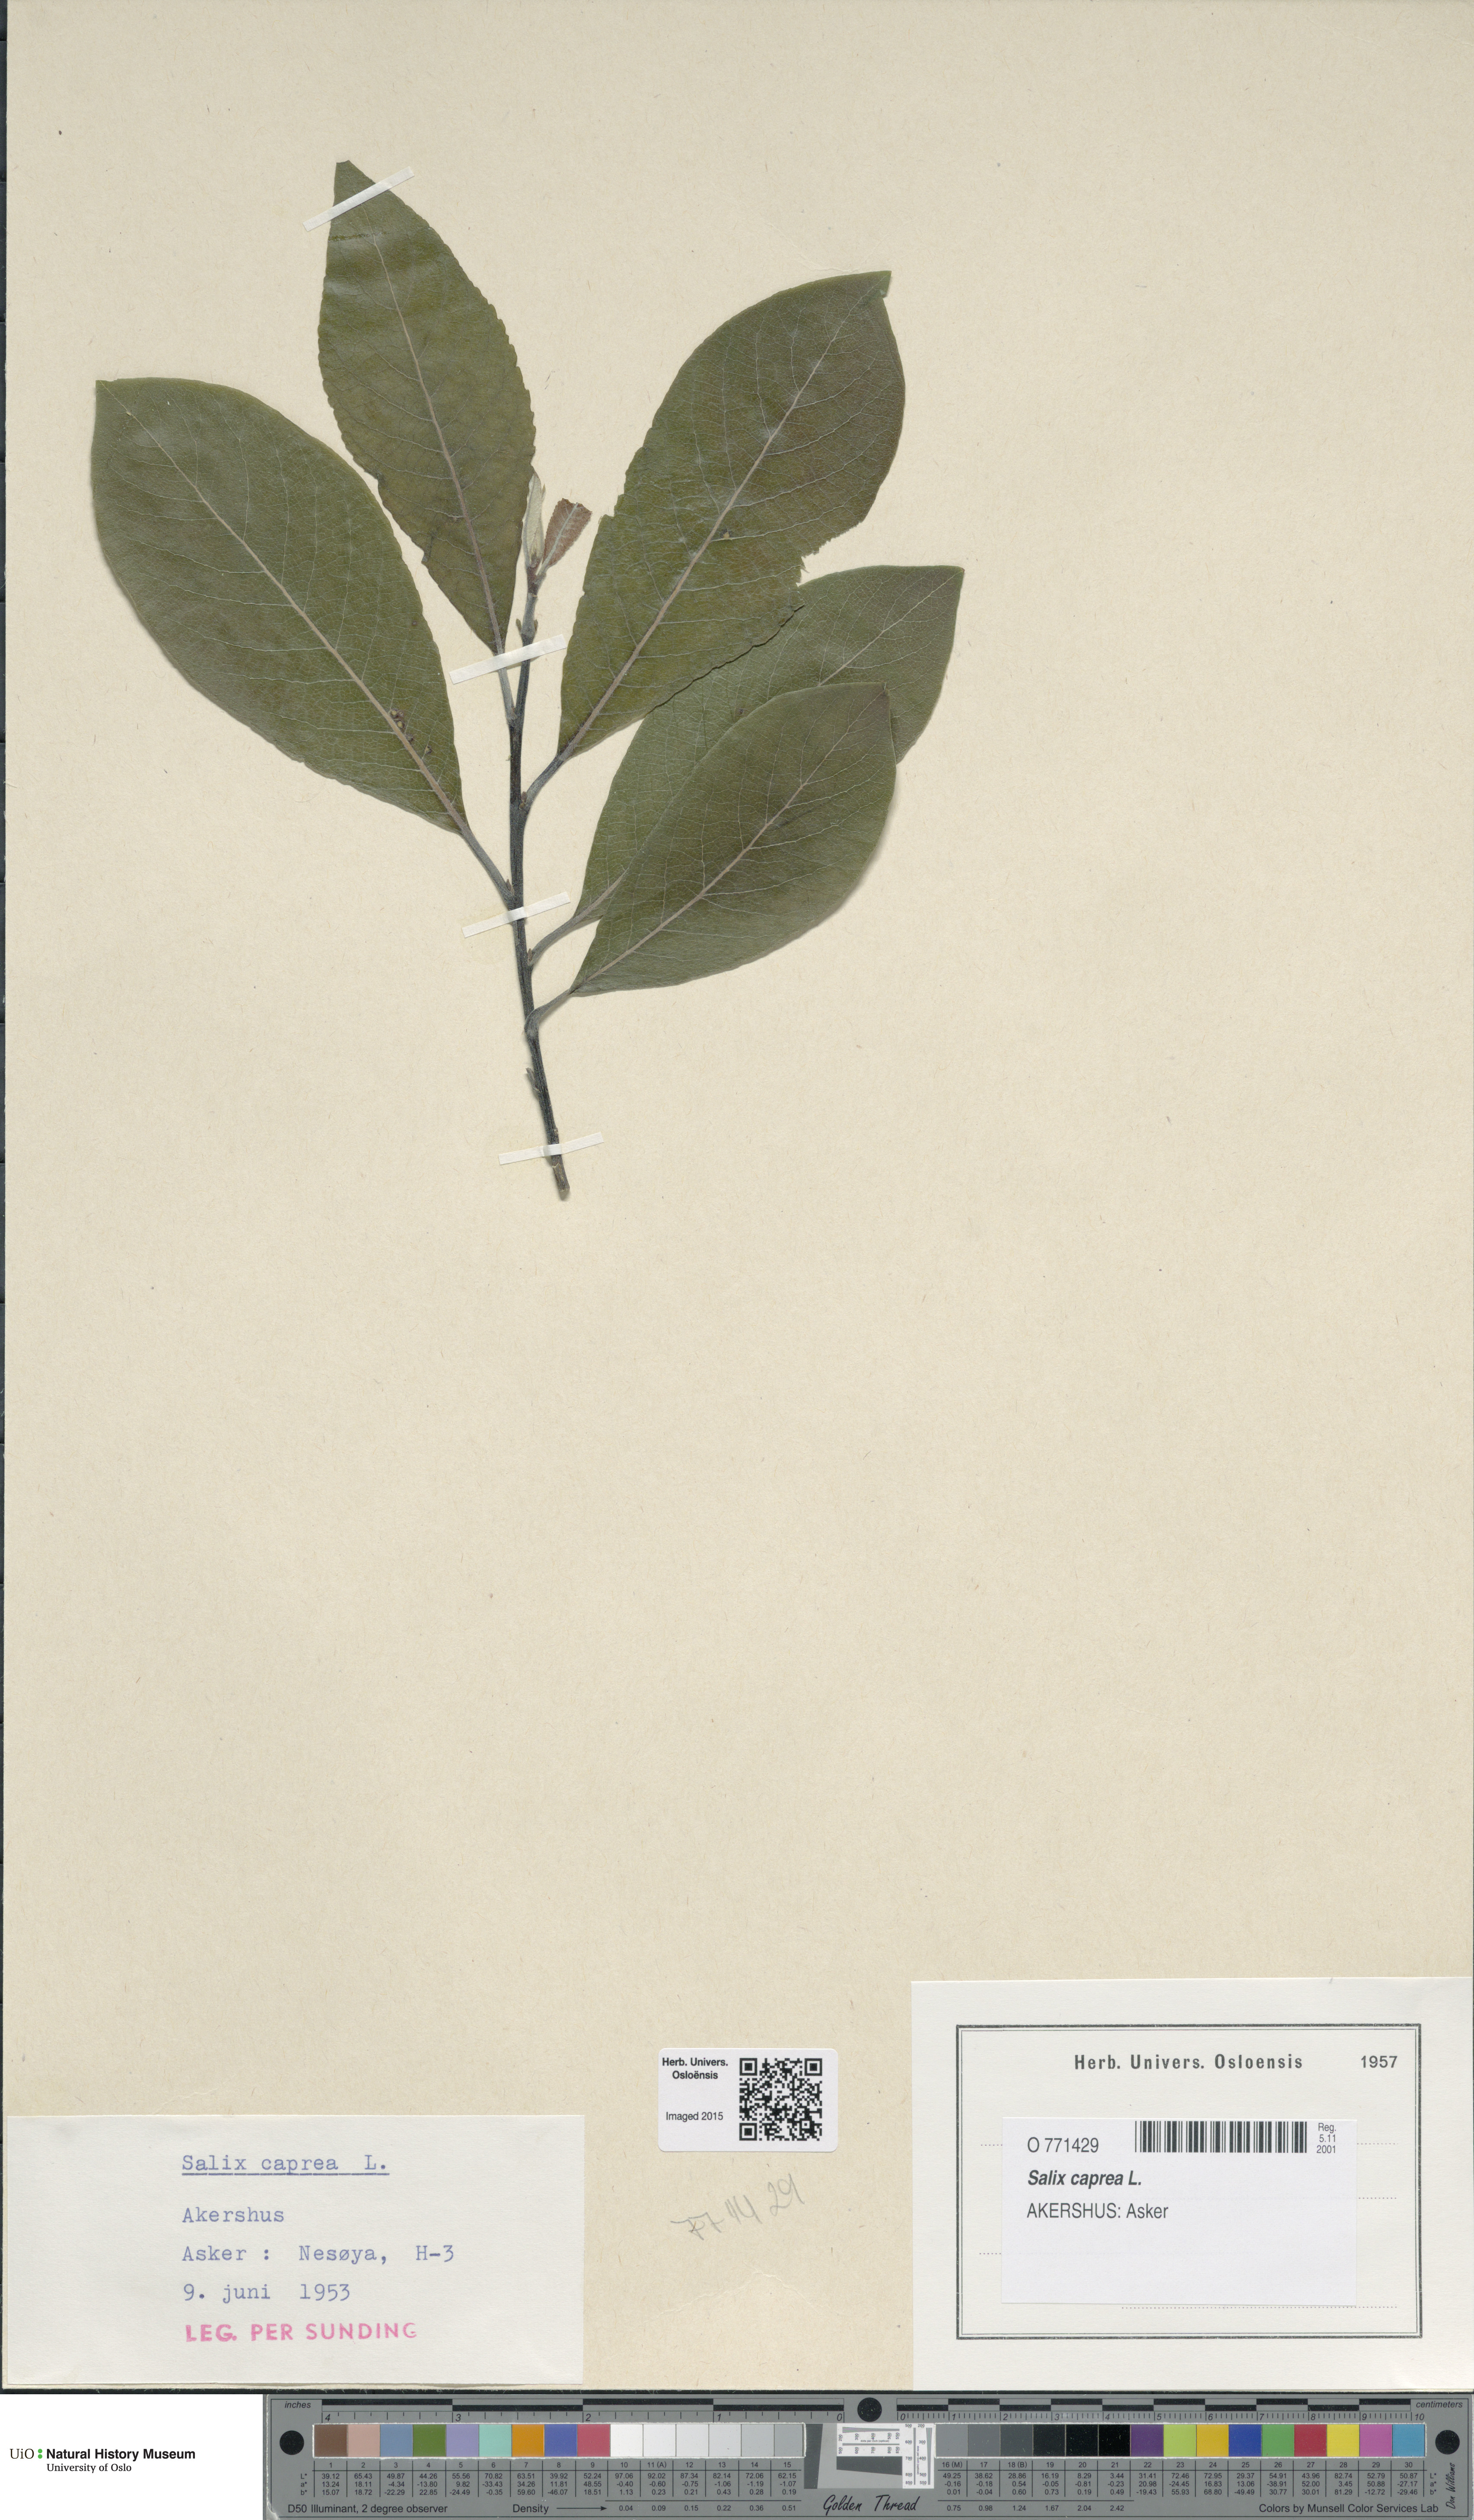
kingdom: Plantae
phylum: Tracheophyta
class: Magnoliopsida
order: Malpighiales
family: Salicaceae
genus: Salix
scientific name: Salix caprea
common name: Goat willow
